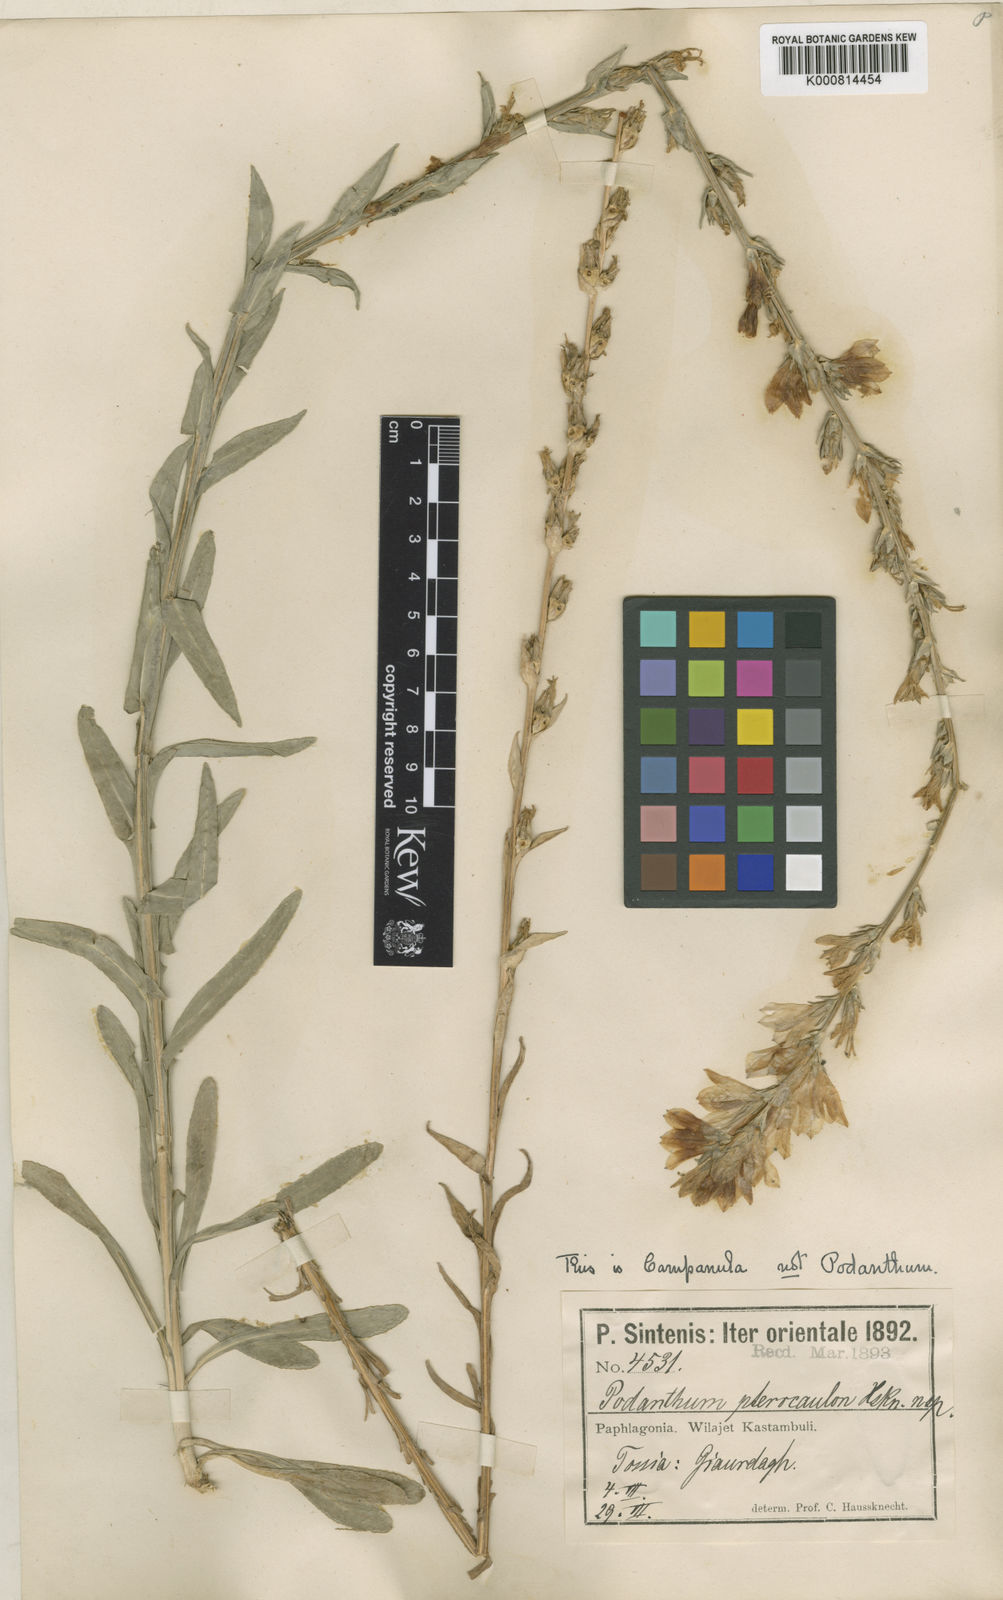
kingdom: Plantae
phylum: Tracheophyta
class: Magnoliopsida
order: Asterales
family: Campanulaceae
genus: Campanula
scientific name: Campanula pterocaula
